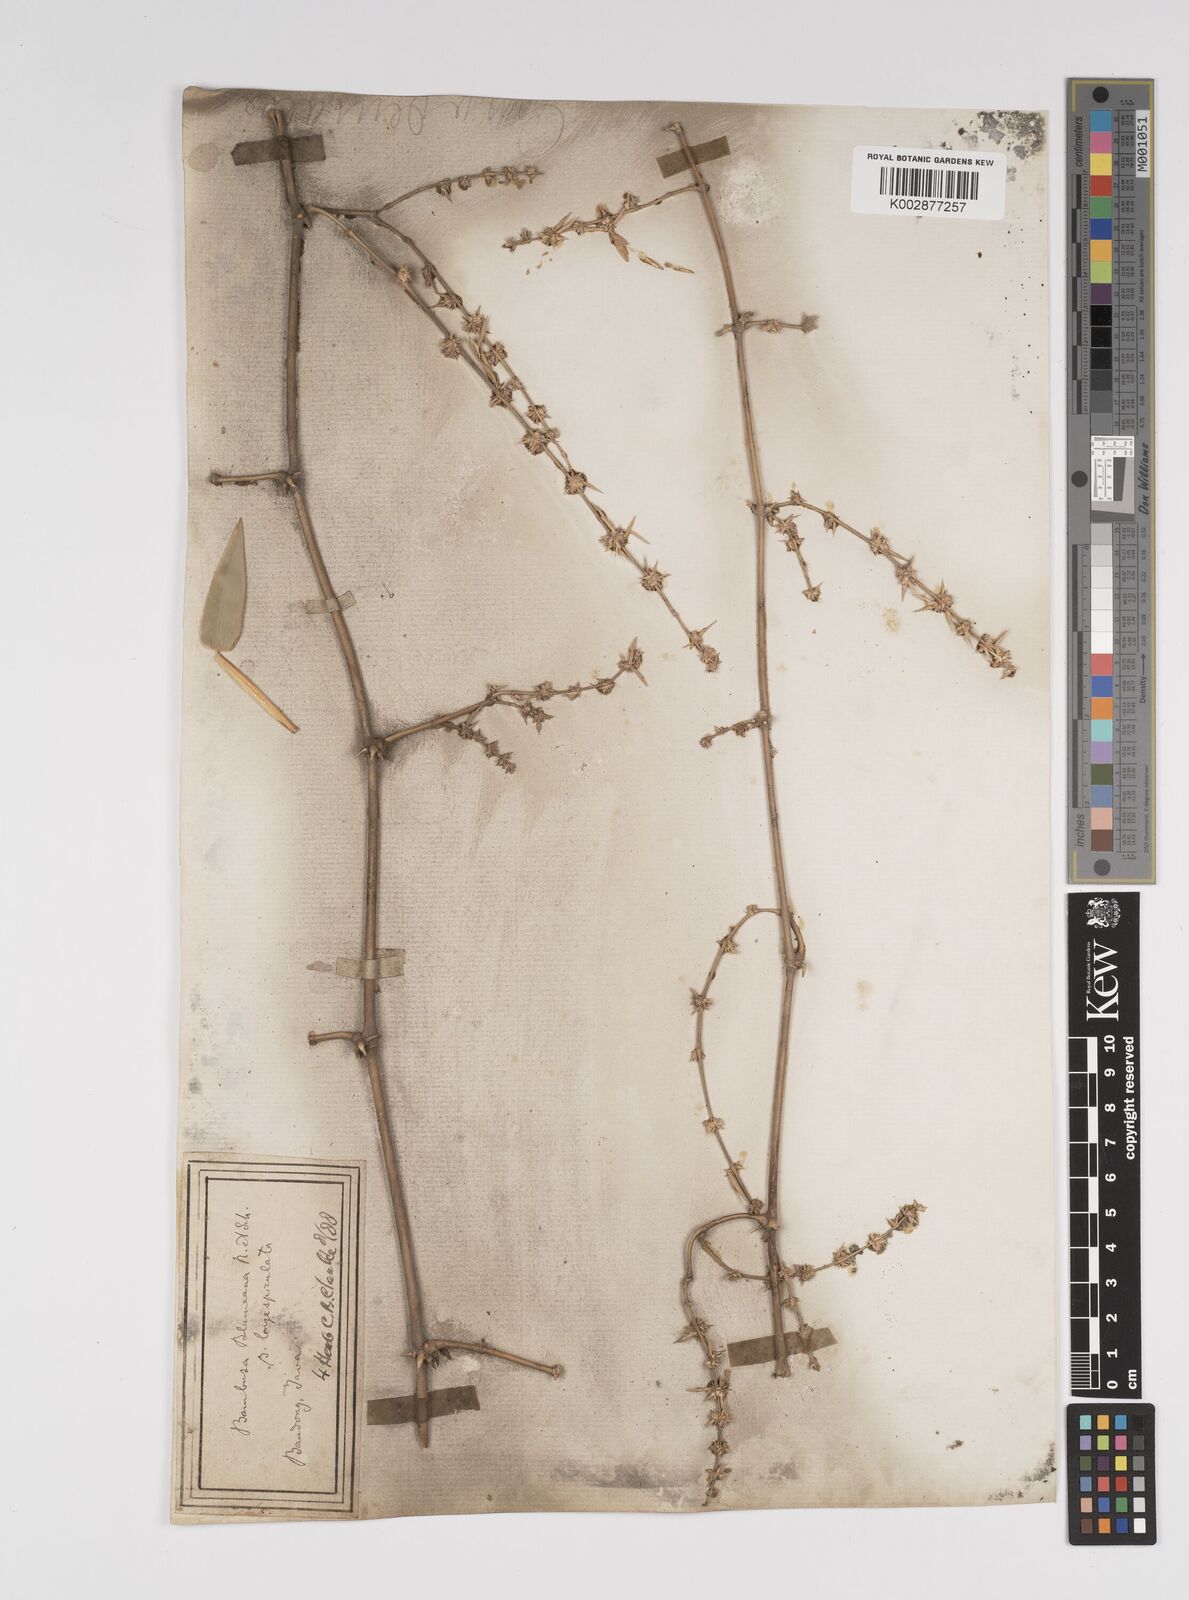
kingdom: Plantae
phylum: Tracheophyta
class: Liliopsida
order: Poales
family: Poaceae
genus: Bambusa
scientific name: Bambusa spinosa
